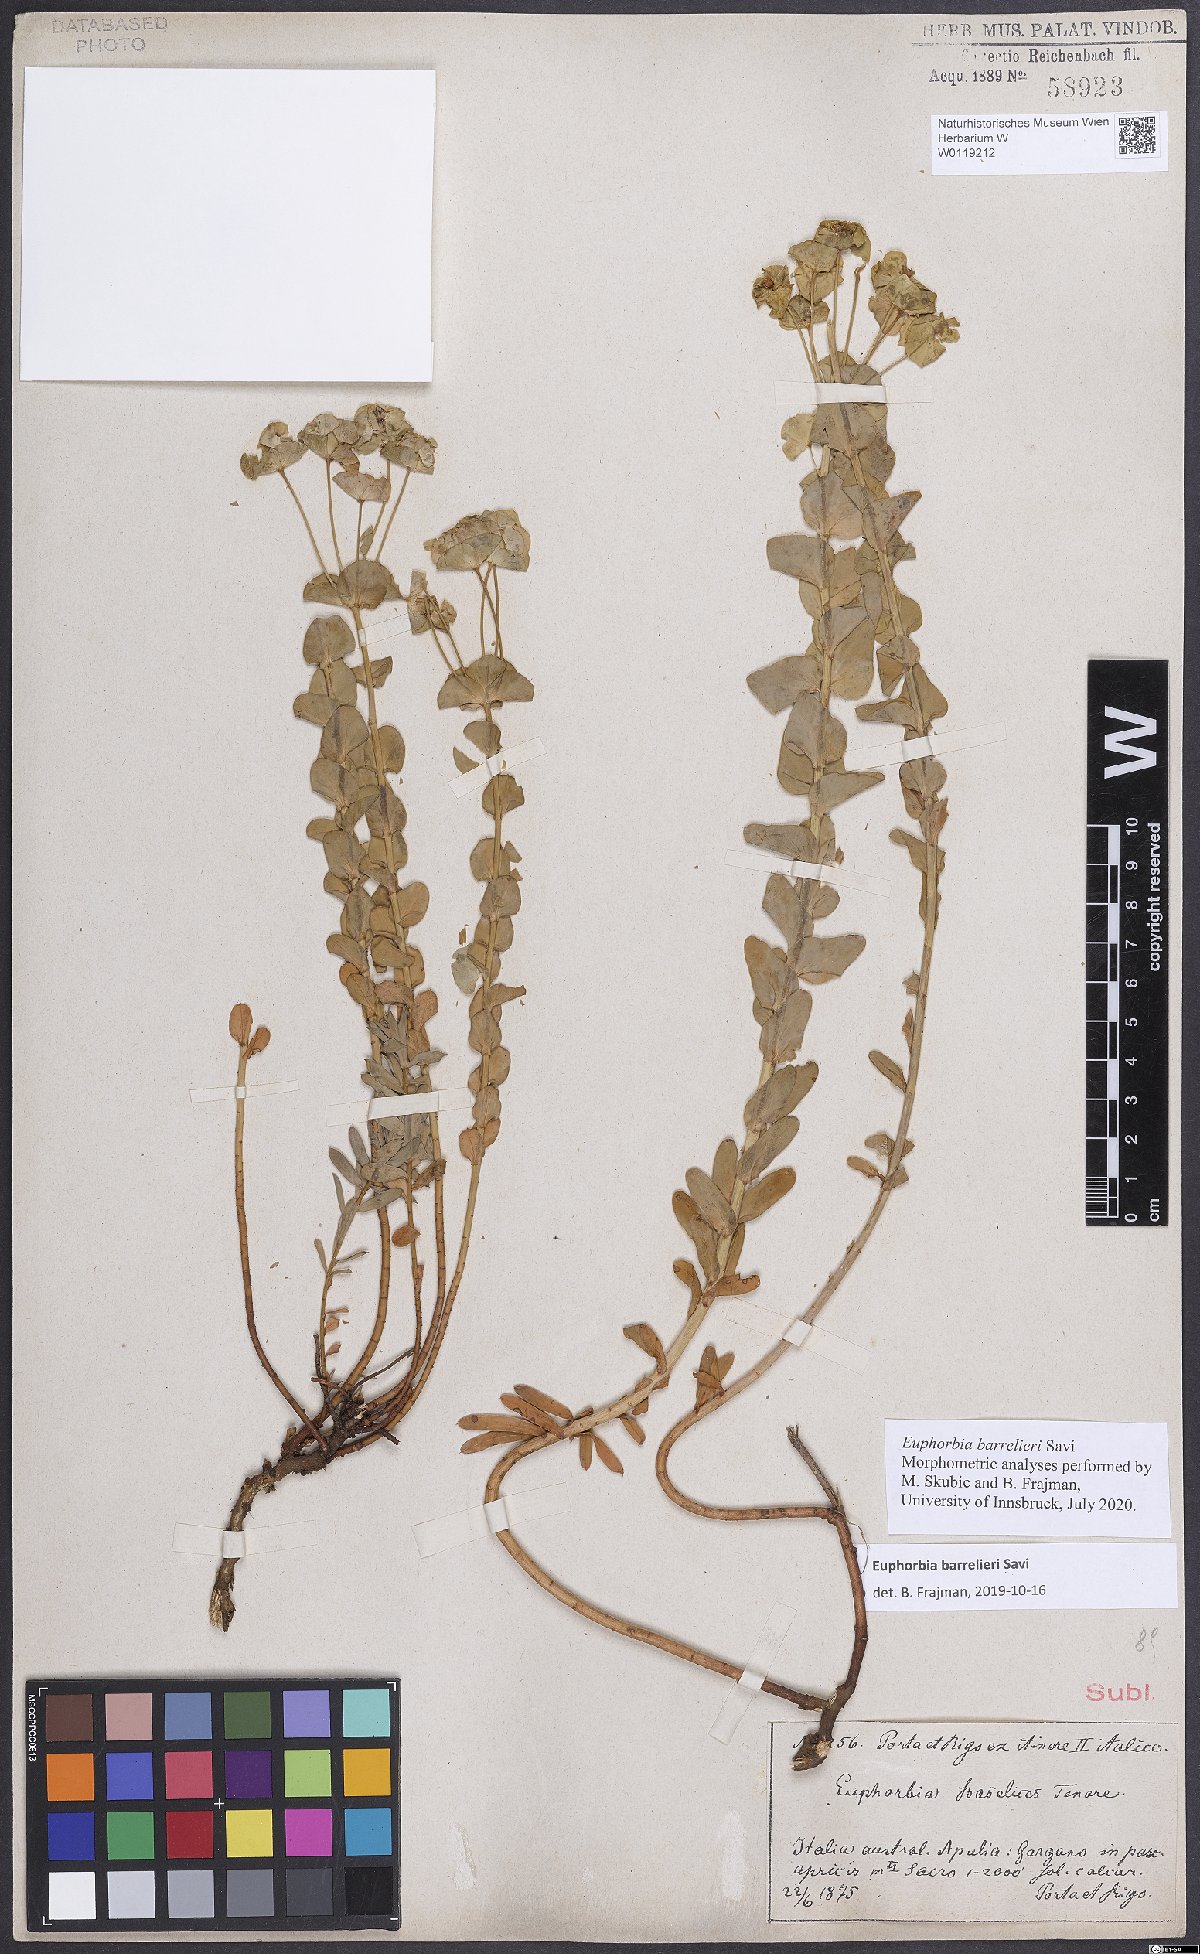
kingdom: Plantae
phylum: Tracheophyta
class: Magnoliopsida
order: Malpighiales
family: Euphorbiaceae
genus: Euphorbia
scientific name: Euphorbia barrelieri
